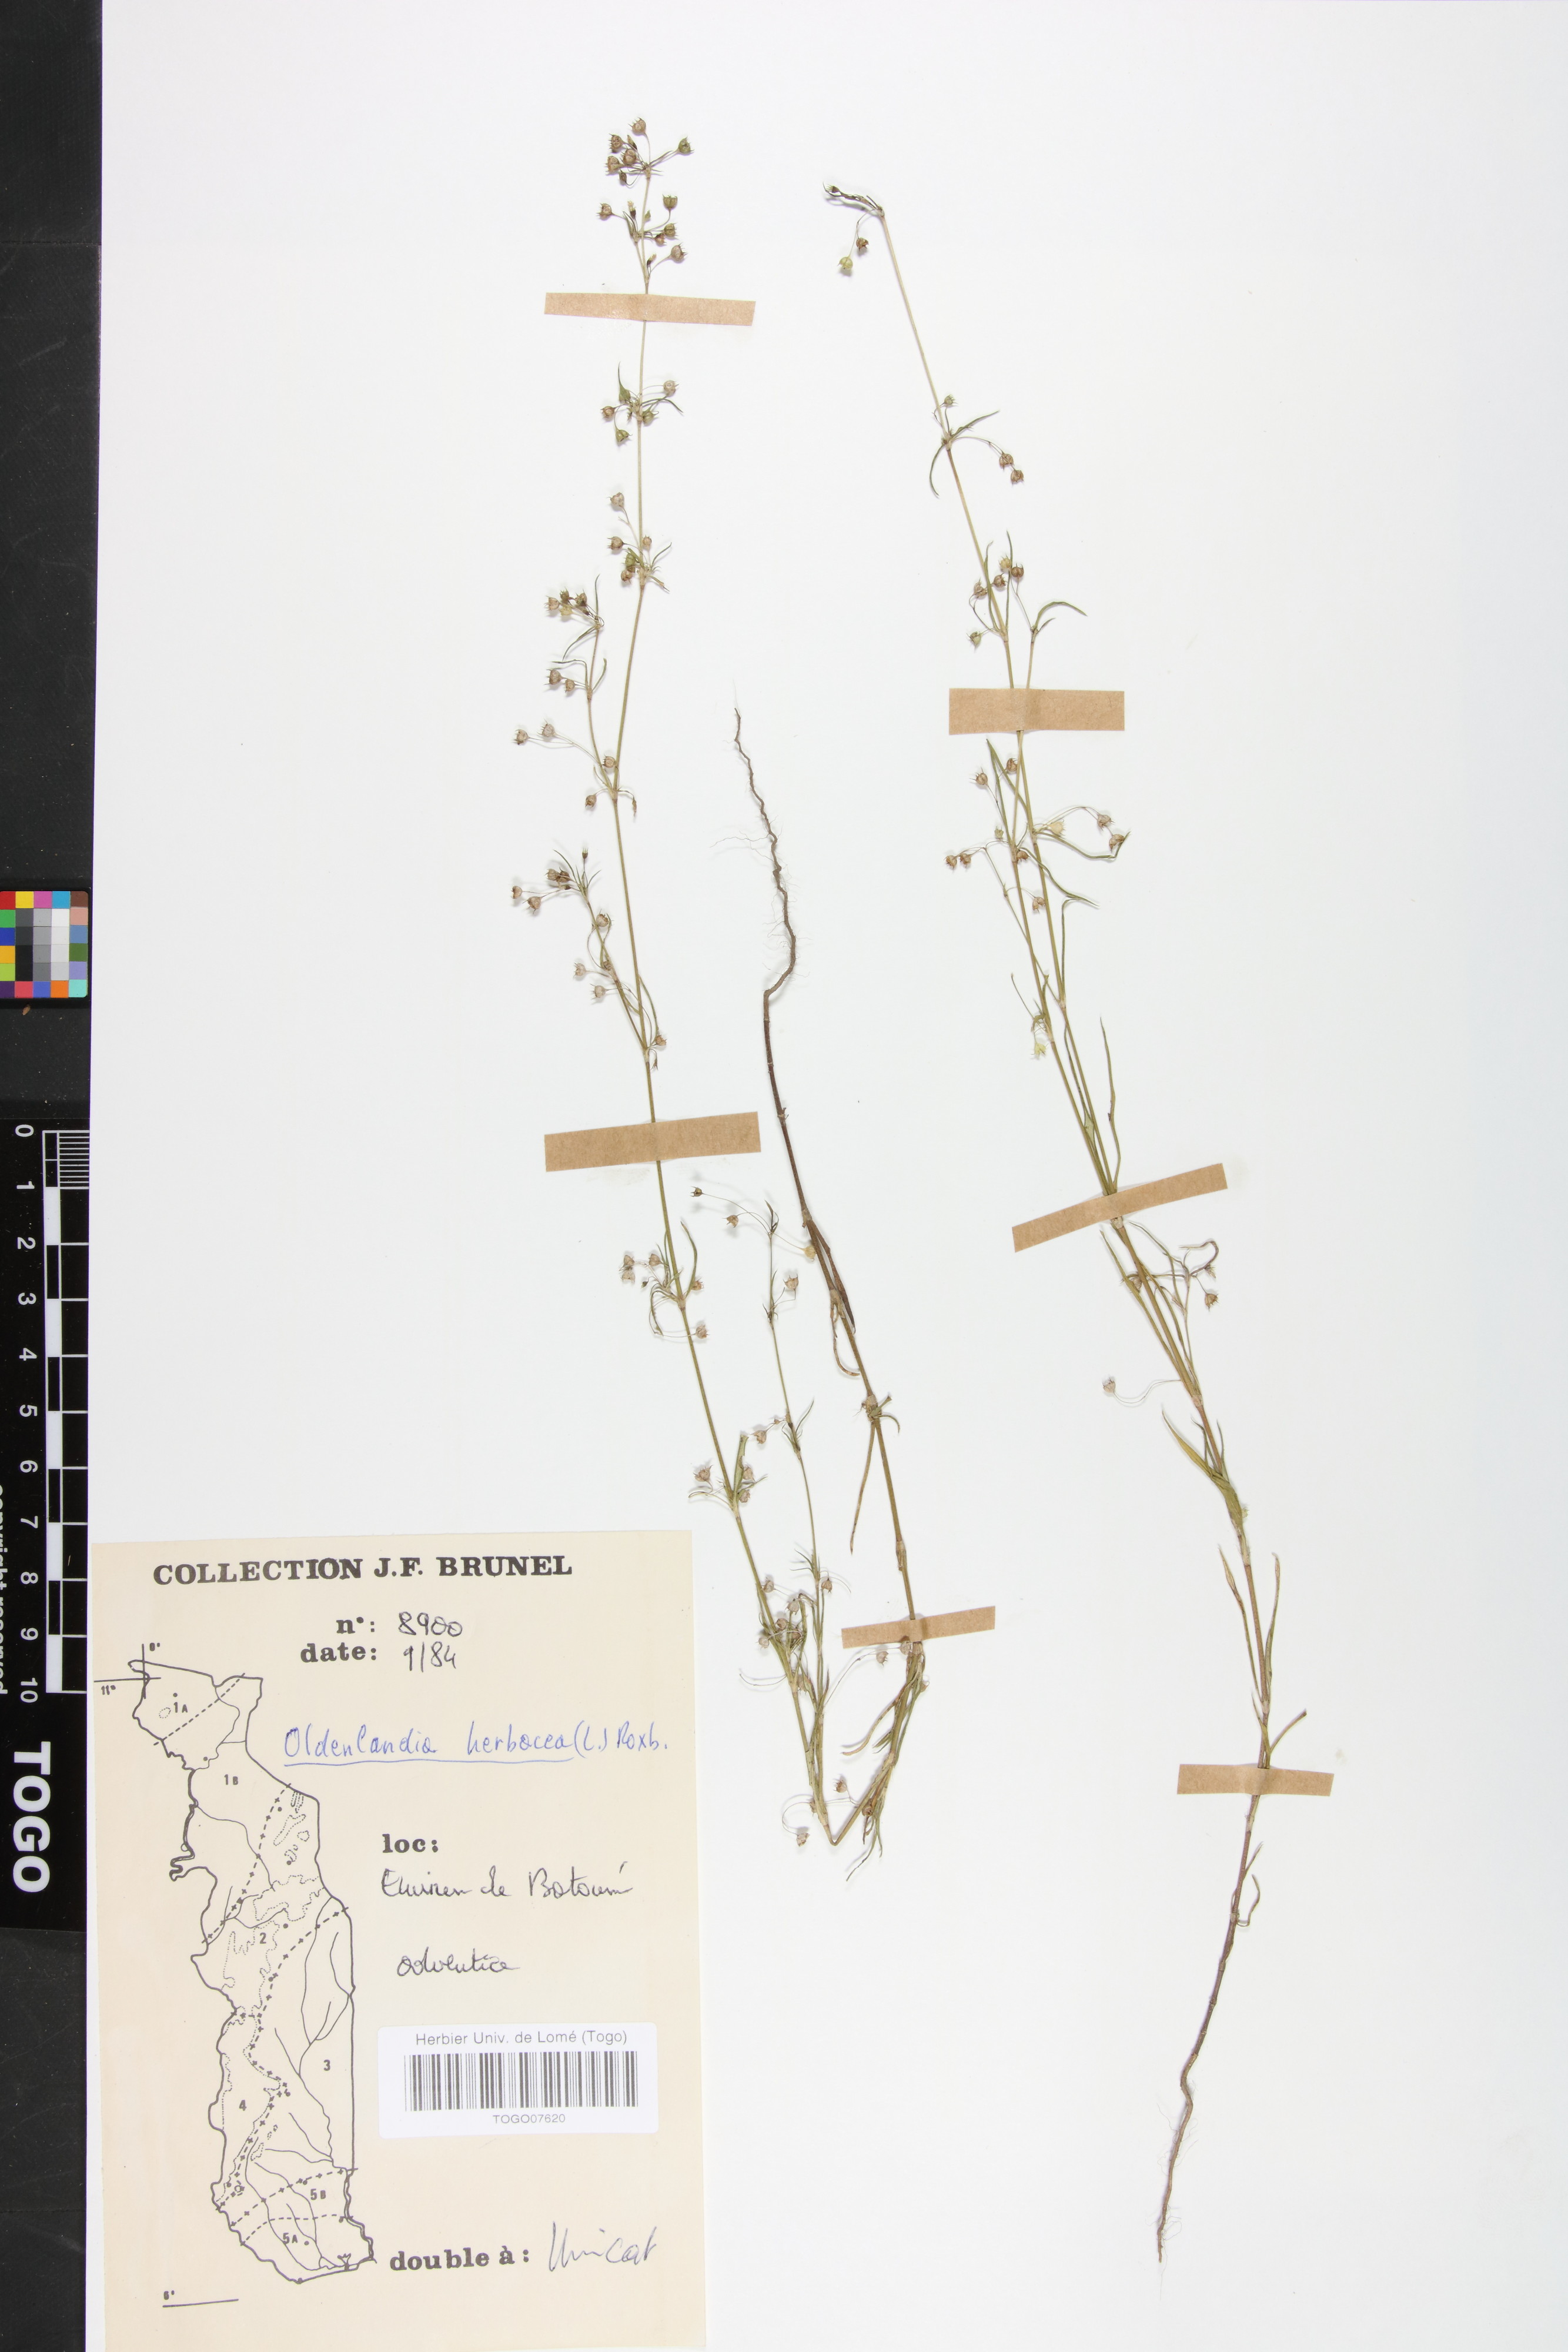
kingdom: Plantae
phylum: Tracheophyta
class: Magnoliopsida
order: Gentianales
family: Rubiaceae
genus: Oldenlandia
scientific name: Oldenlandia herbacea
